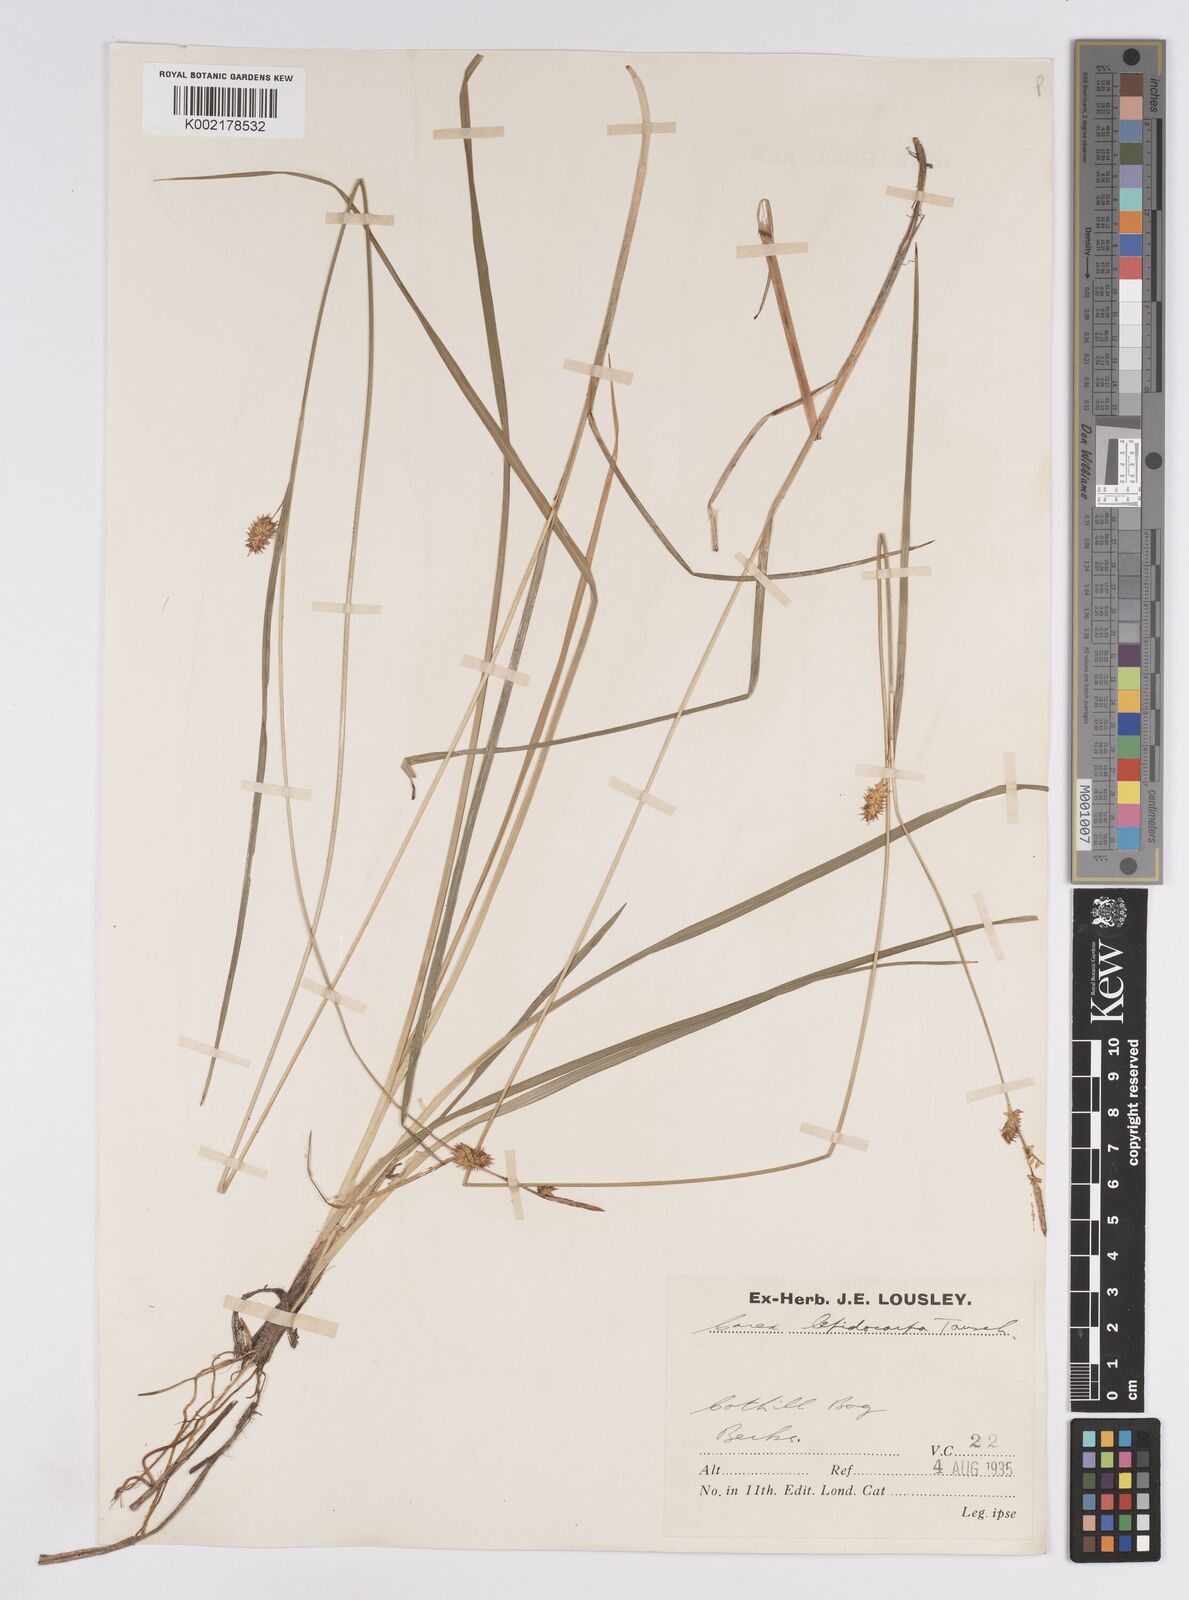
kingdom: Plantae
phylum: Tracheophyta
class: Liliopsida
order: Poales
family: Cyperaceae
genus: Carex
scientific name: Carex lepidocarpa
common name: Long-stalked yellow-sedge
